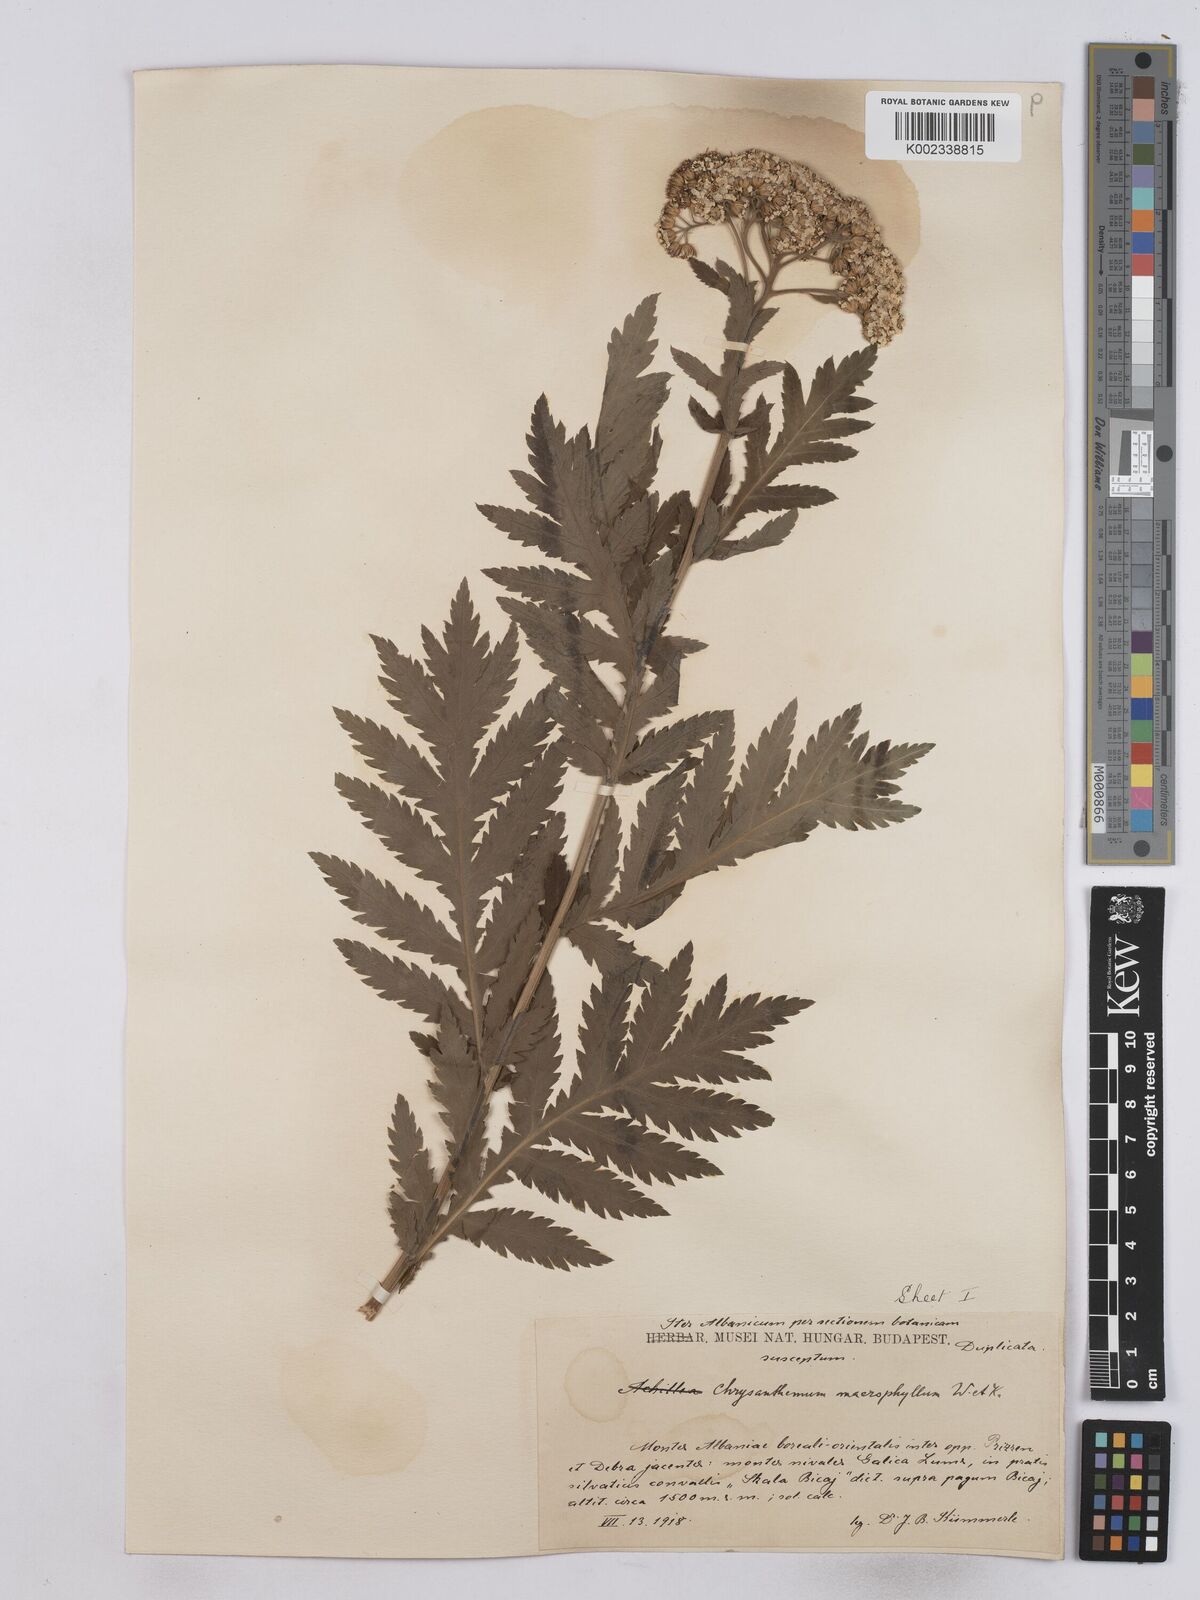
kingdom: Plantae
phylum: Tracheophyta
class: Magnoliopsida
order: Asterales
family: Asteraceae
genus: Tanacetum
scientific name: Tanacetum macrophyllum
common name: Rayed tansy
